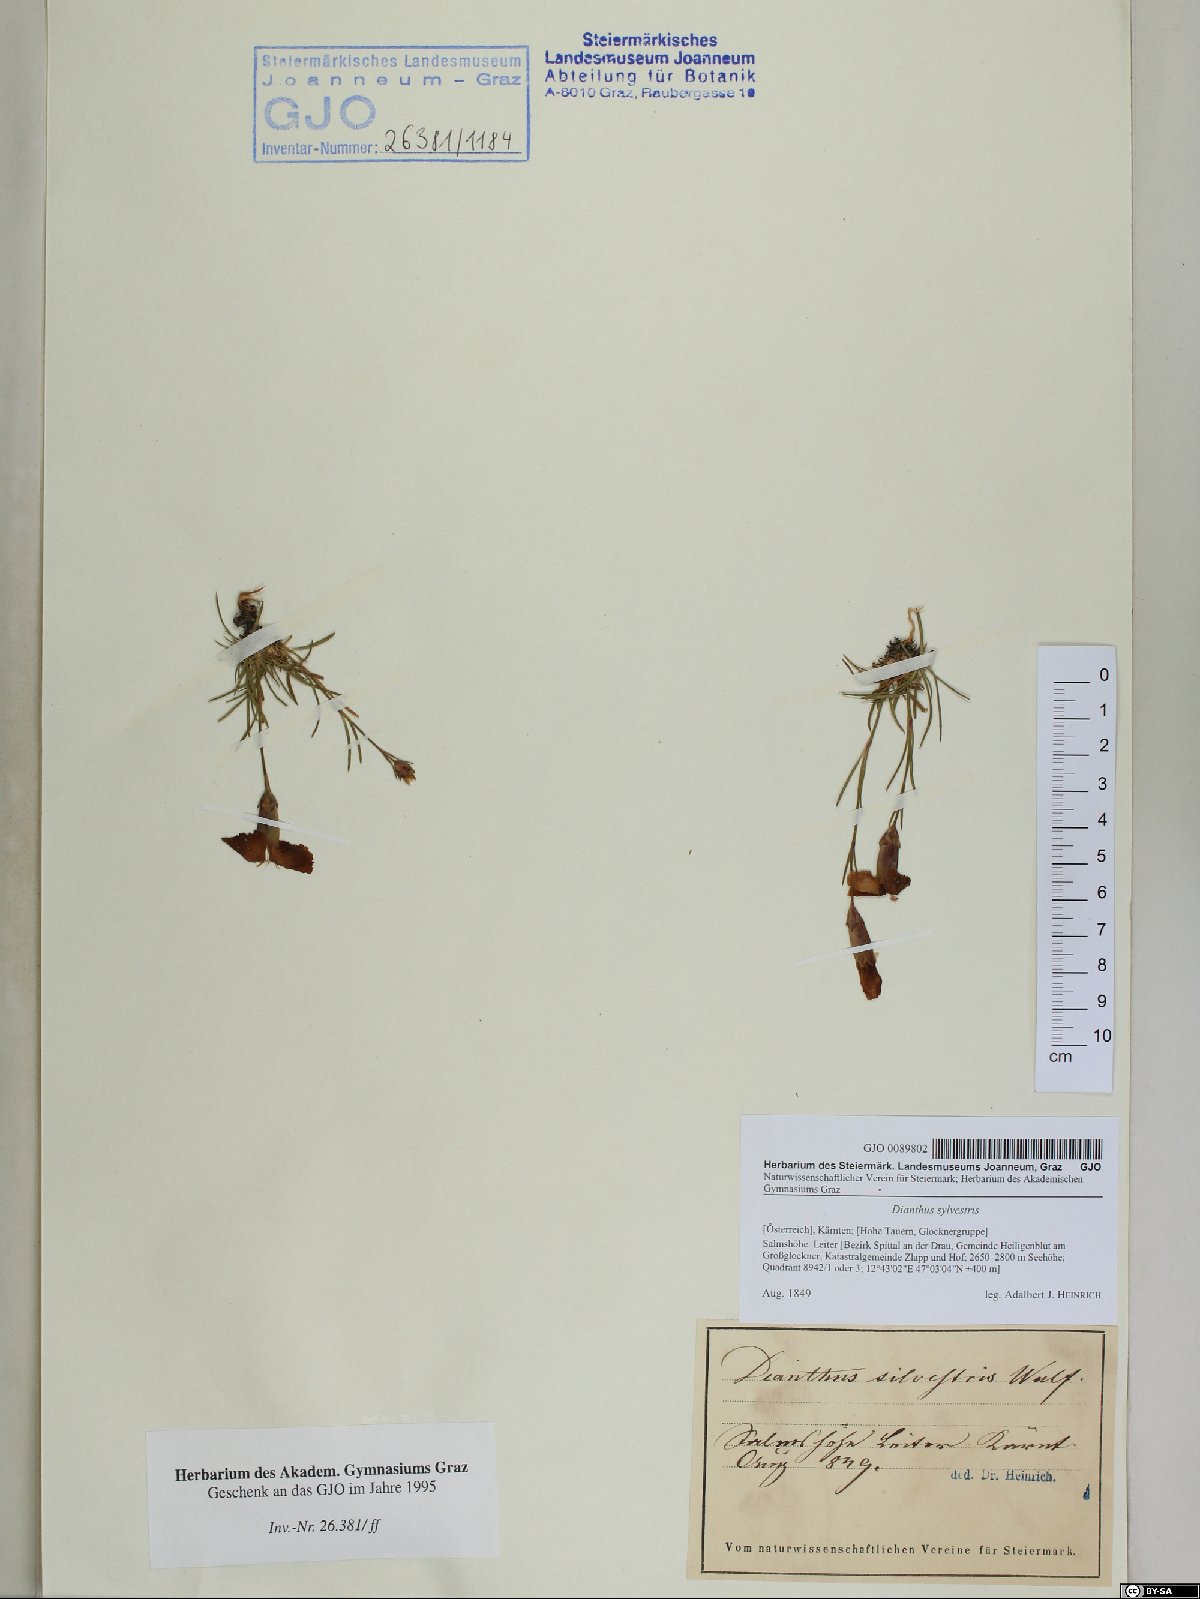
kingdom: Plantae
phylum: Tracheophyta
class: Magnoliopsida
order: Caryophyllales
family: Caryophyllaceae
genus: Dianthus
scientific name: Dianthus sylvestris
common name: Wood pink
